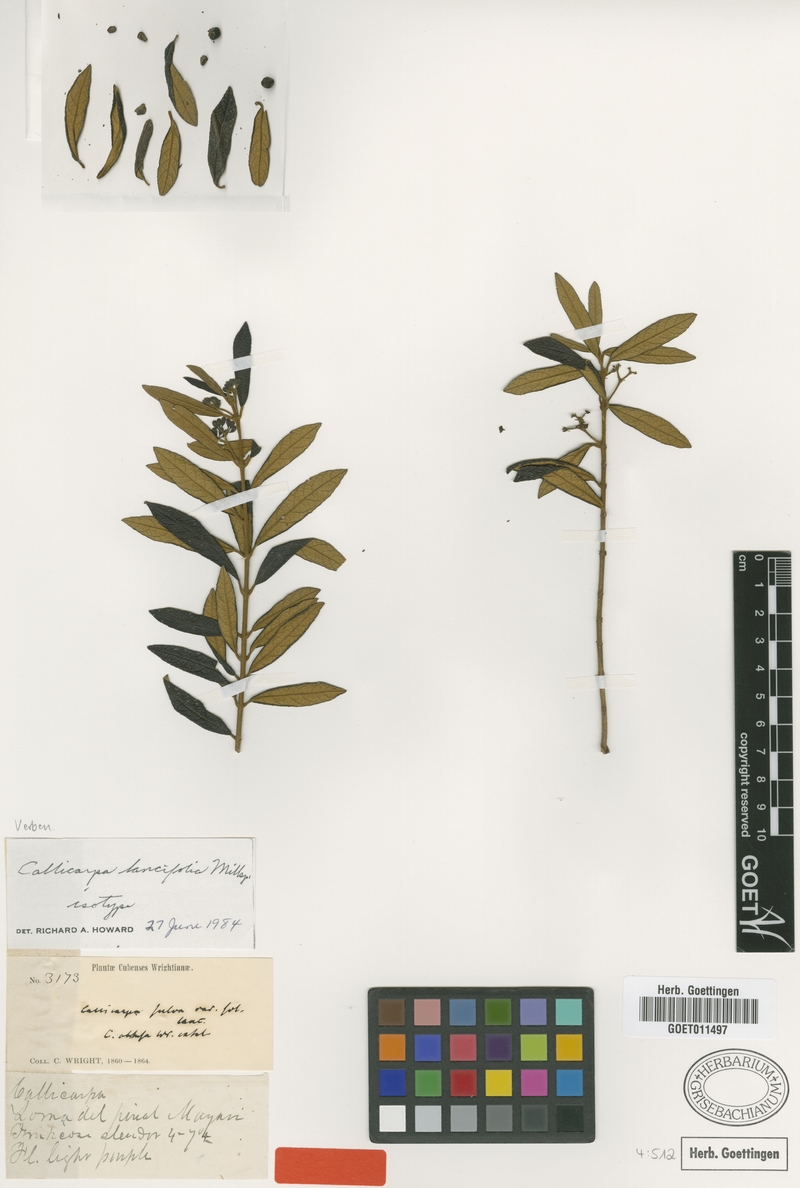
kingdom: Plantae
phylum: Tracheophyta
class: Magnoliopsida
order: Lamiales
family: Lamiaceae
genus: Callicarpa
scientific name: Callicarpa lancifolia
